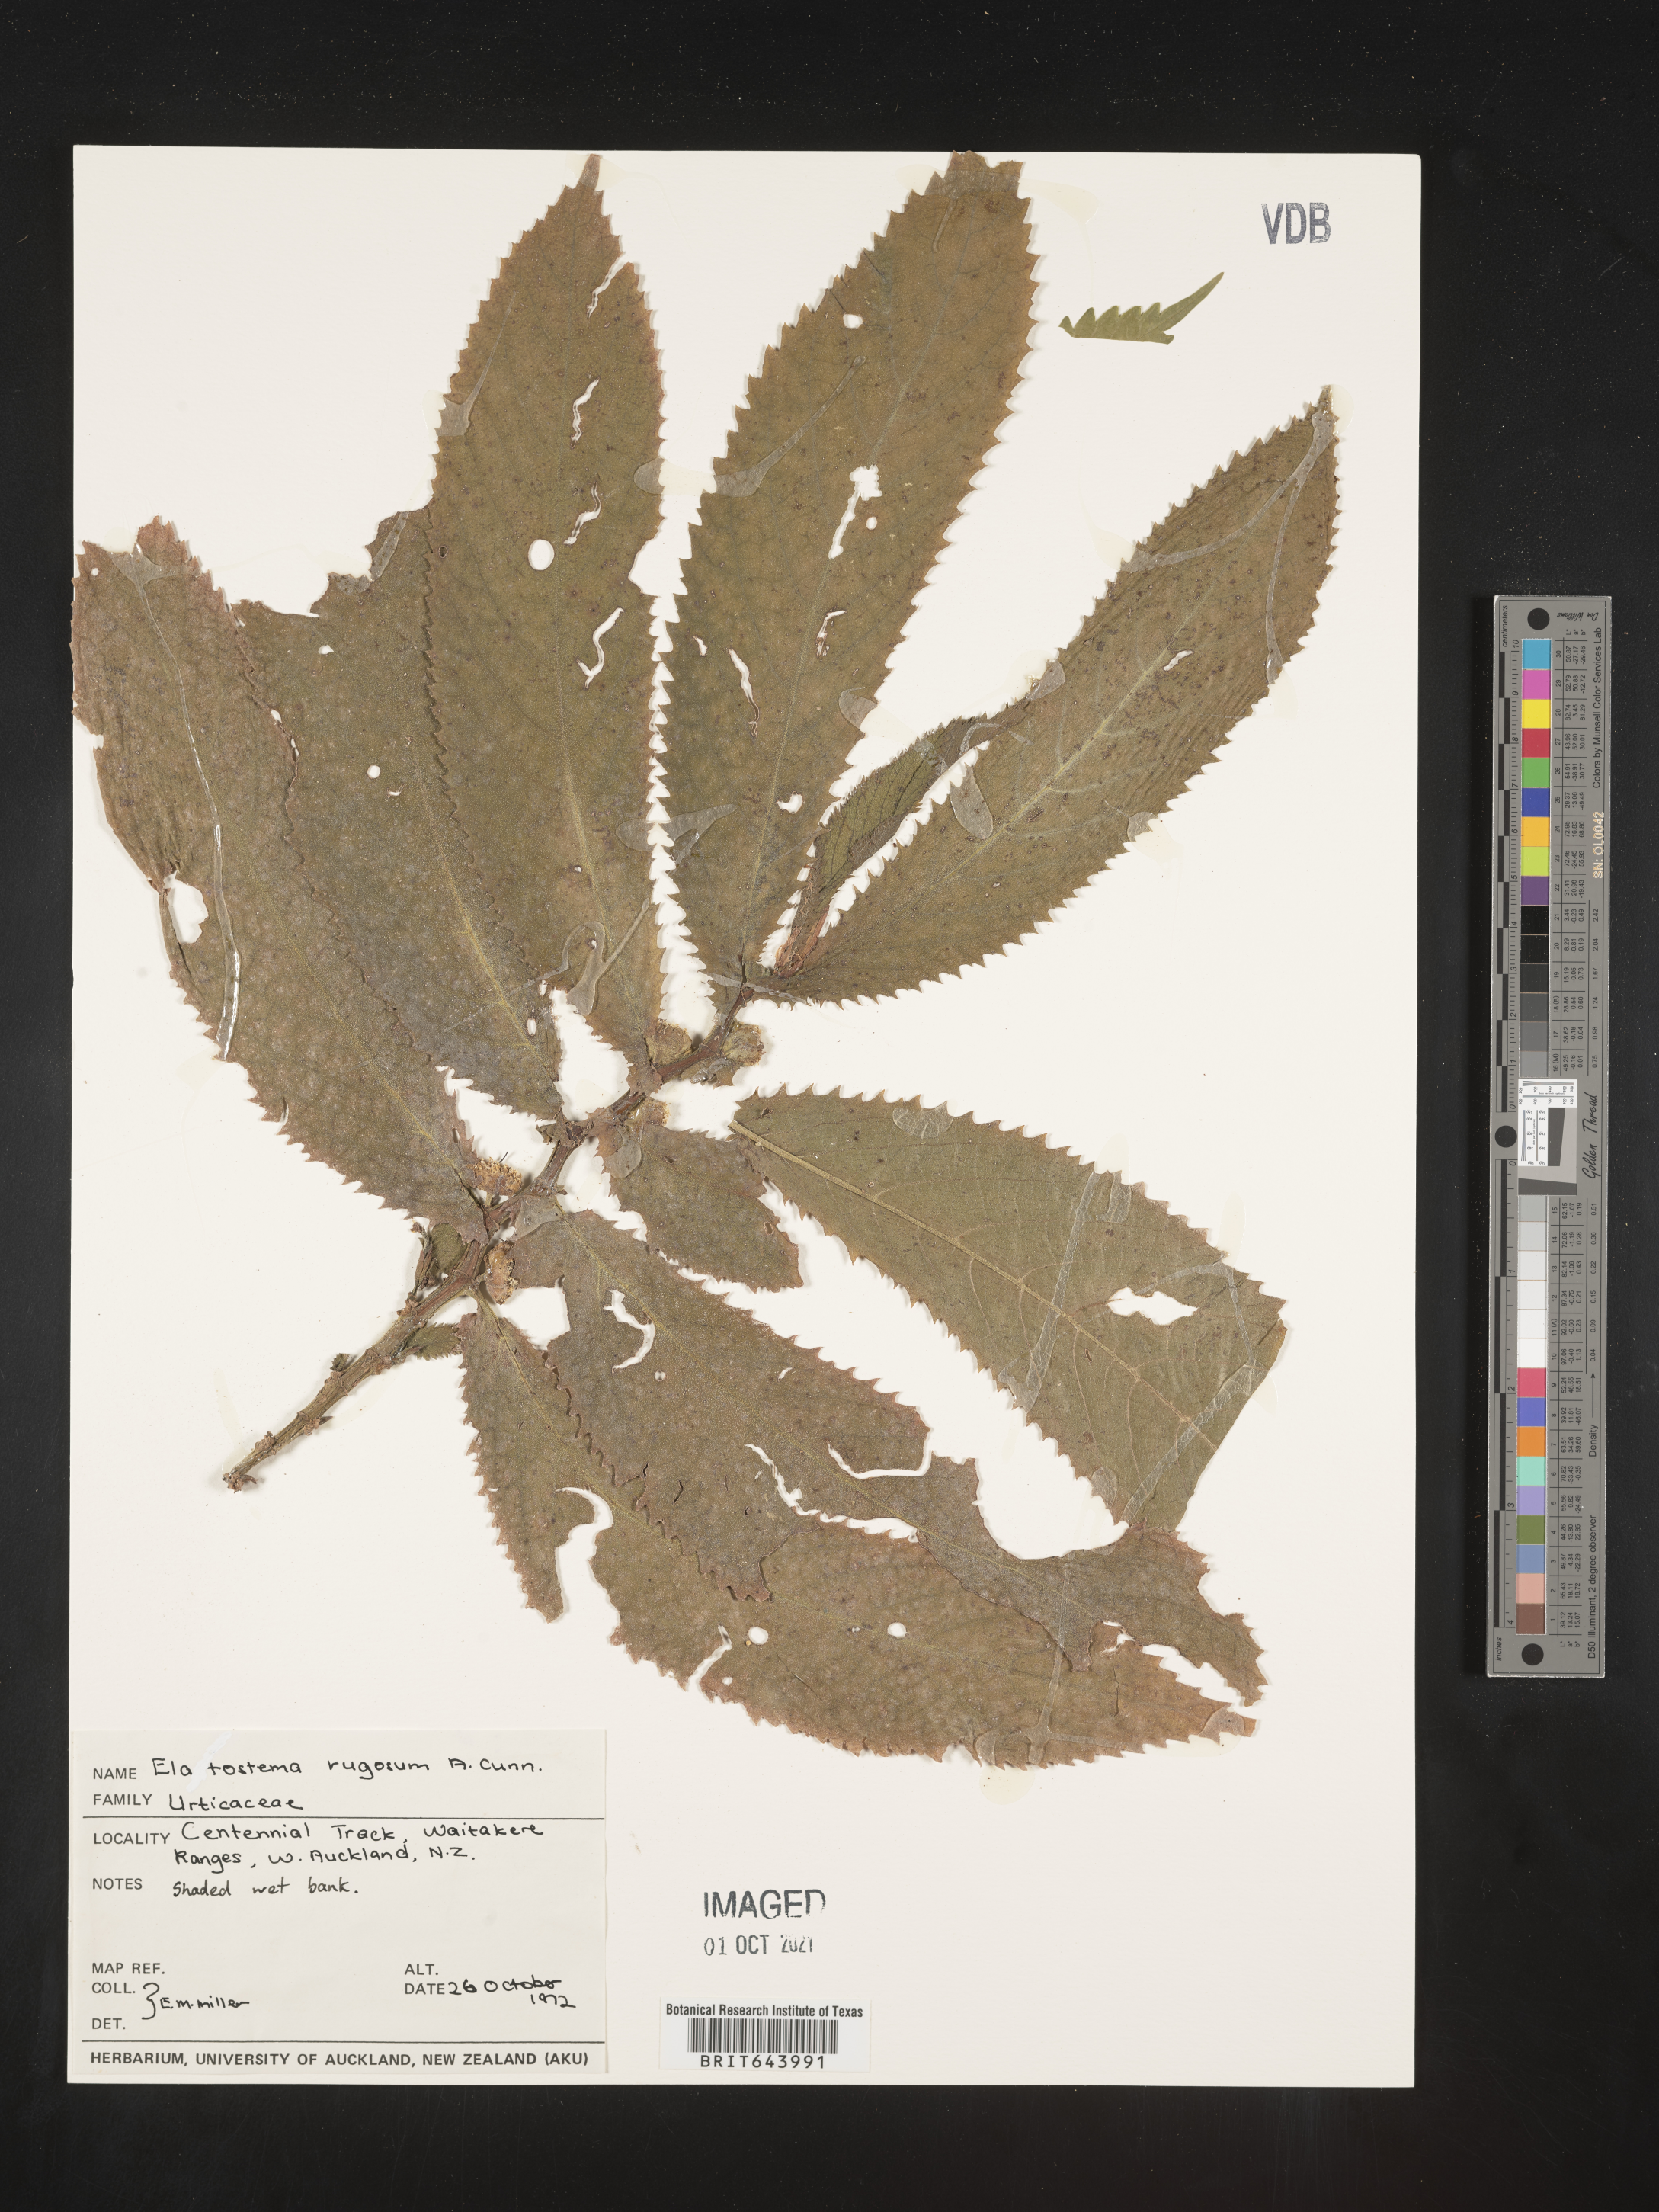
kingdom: Plantae
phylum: Tracheophyta
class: Magnoliopsida
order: Rosales
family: Urticaceae
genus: Elatostema
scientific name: Elatostema
